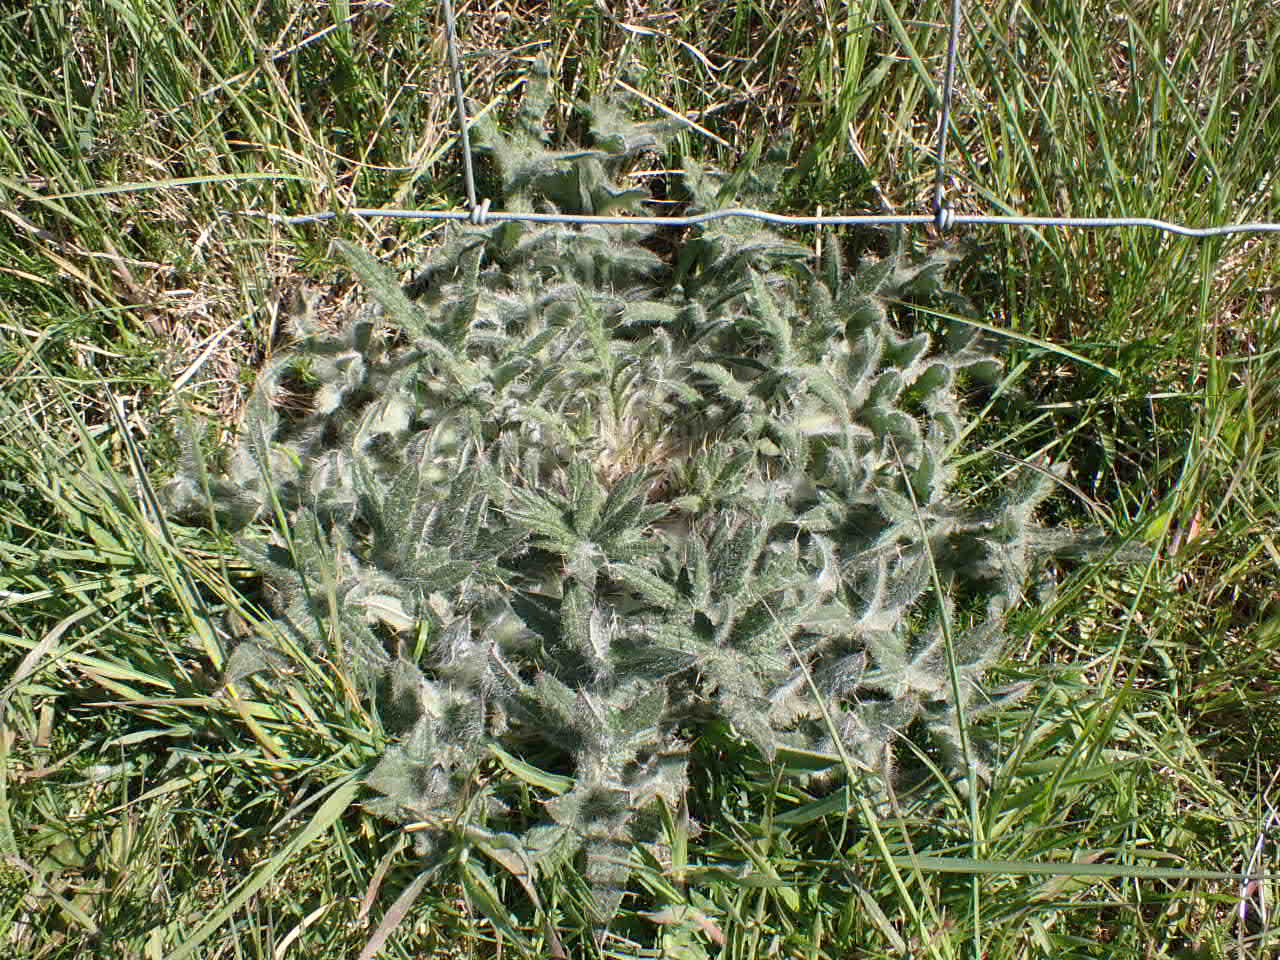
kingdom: Plantae
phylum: Tracheophyta
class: Magnoliopsida
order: Asterales
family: Asteraceae
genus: Cirsium
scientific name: Cirsium vulgare
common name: Horse-tidsel
